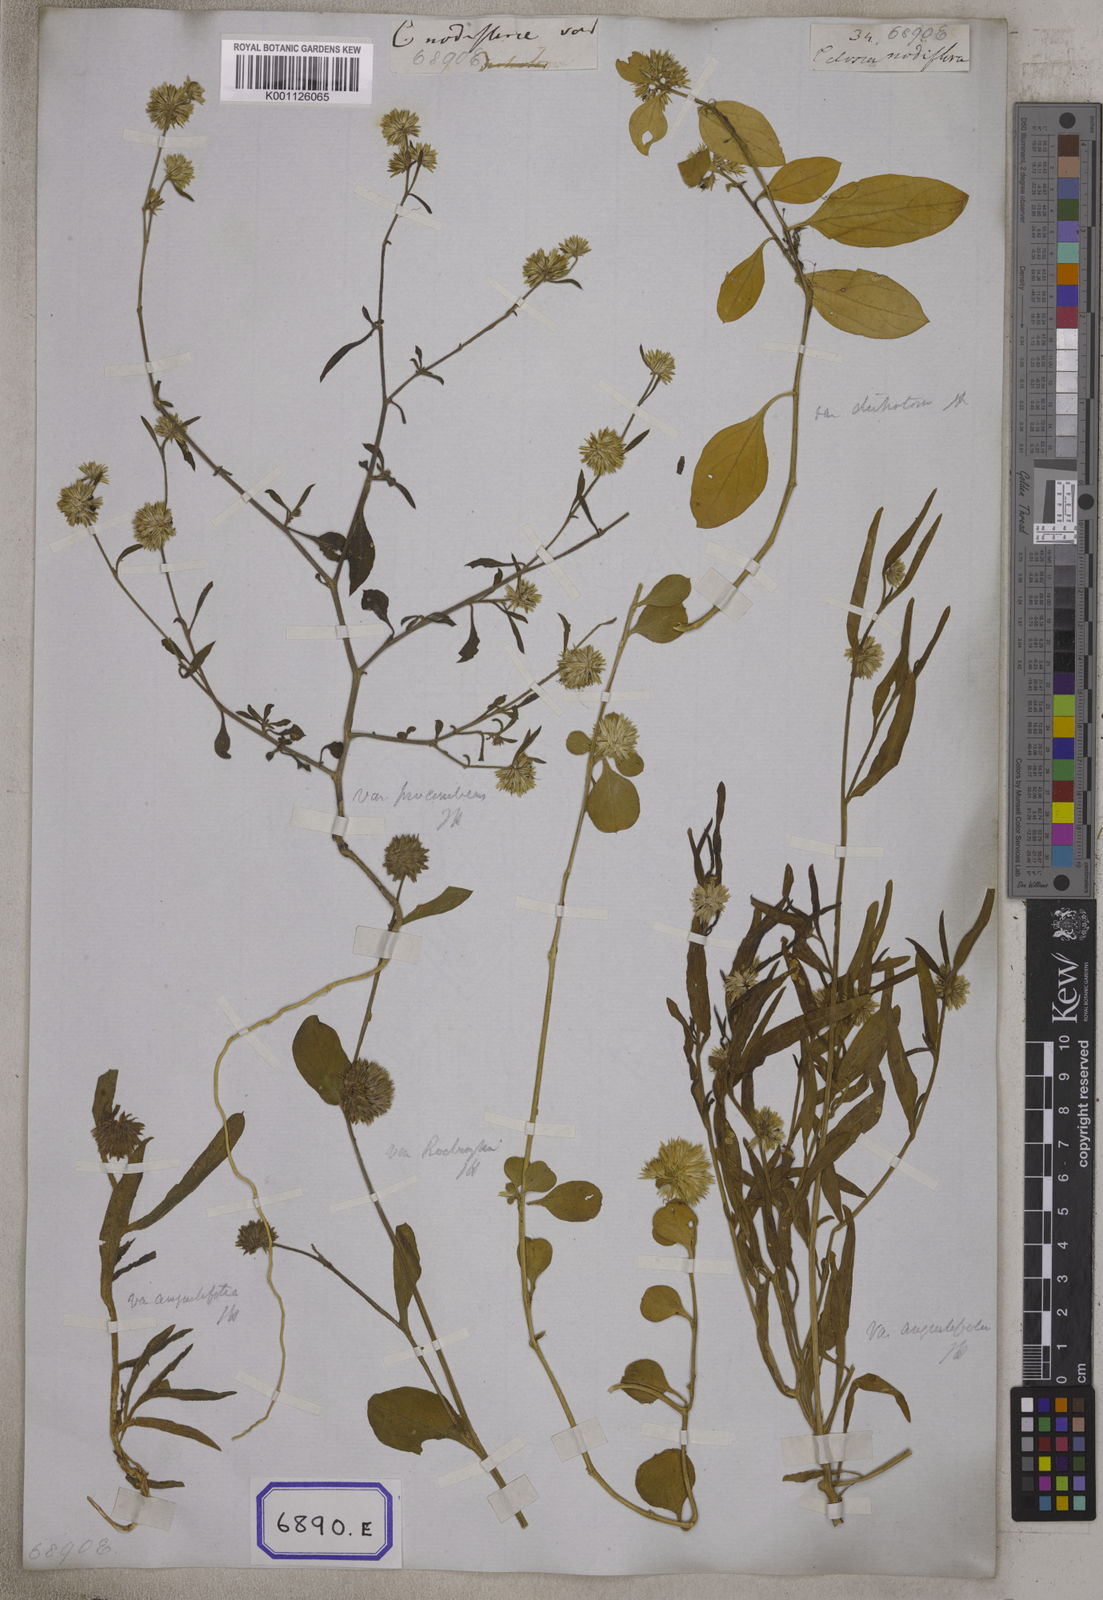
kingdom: Plantae
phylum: Tracheophyta
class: Magnoliopsida
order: Caryophyllales
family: Amaranthaceae
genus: Allmania
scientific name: Allmania
